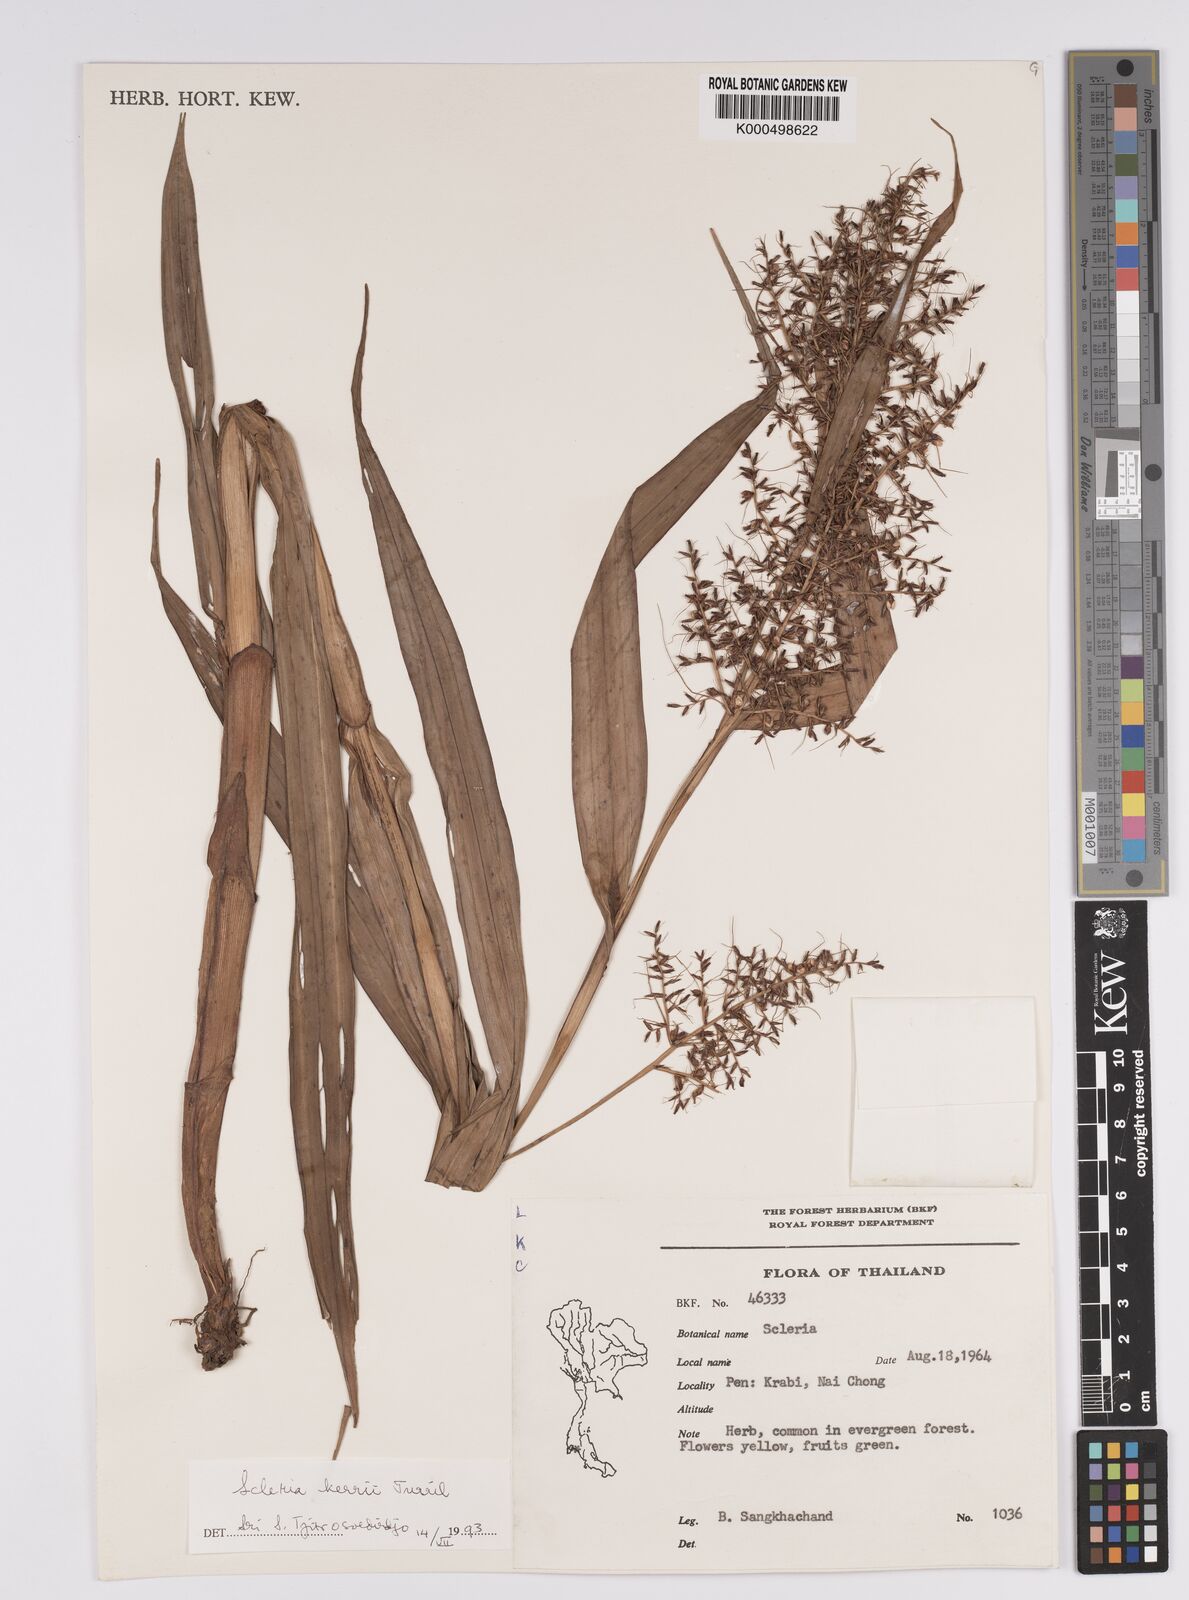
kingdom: Plantae
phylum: Tracheophyta
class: Liliopsida
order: Poales
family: Cyperaceae
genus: Scleria
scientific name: Scleria kerrii
